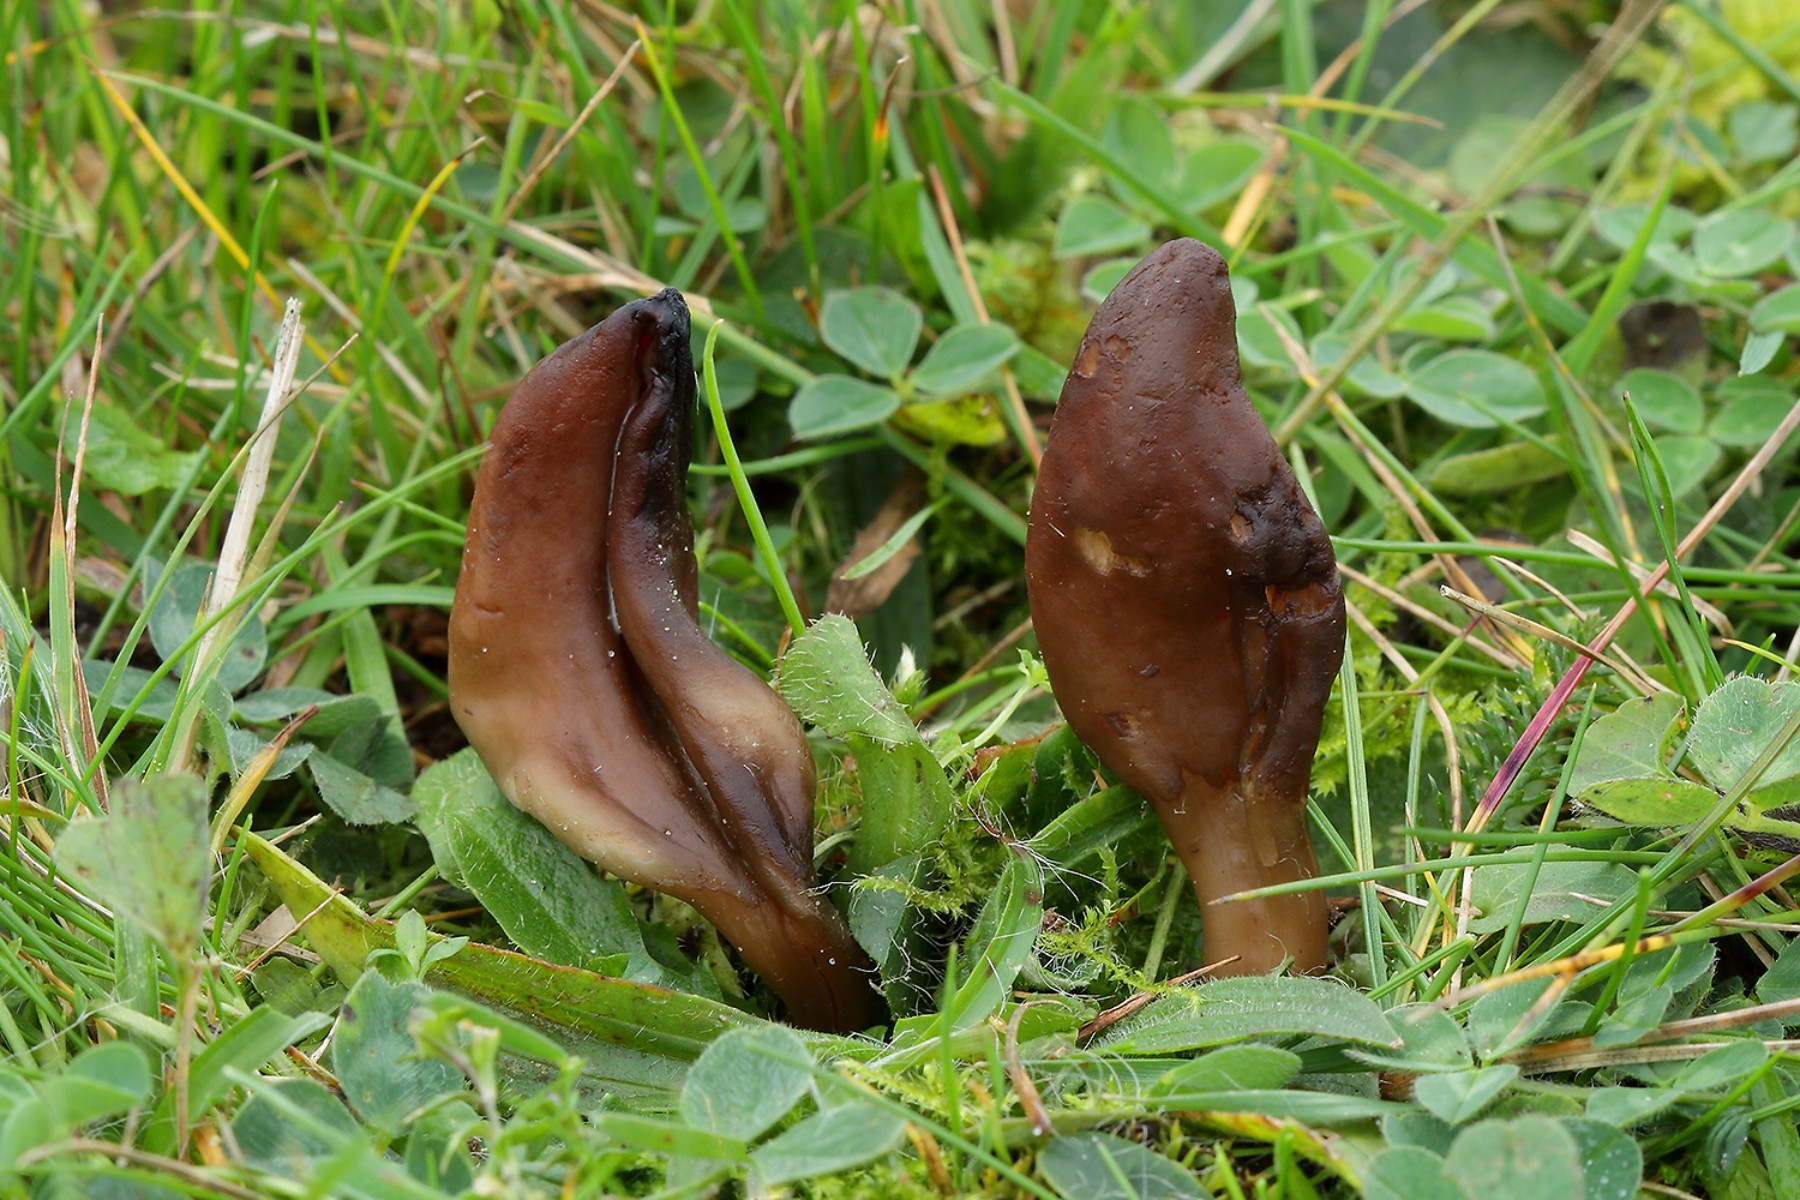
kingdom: Fungi
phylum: Ascomycota
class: Leotiomycetes
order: Helotiales
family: Lachnaceae
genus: Microglossum
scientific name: Microglossum rufescens
